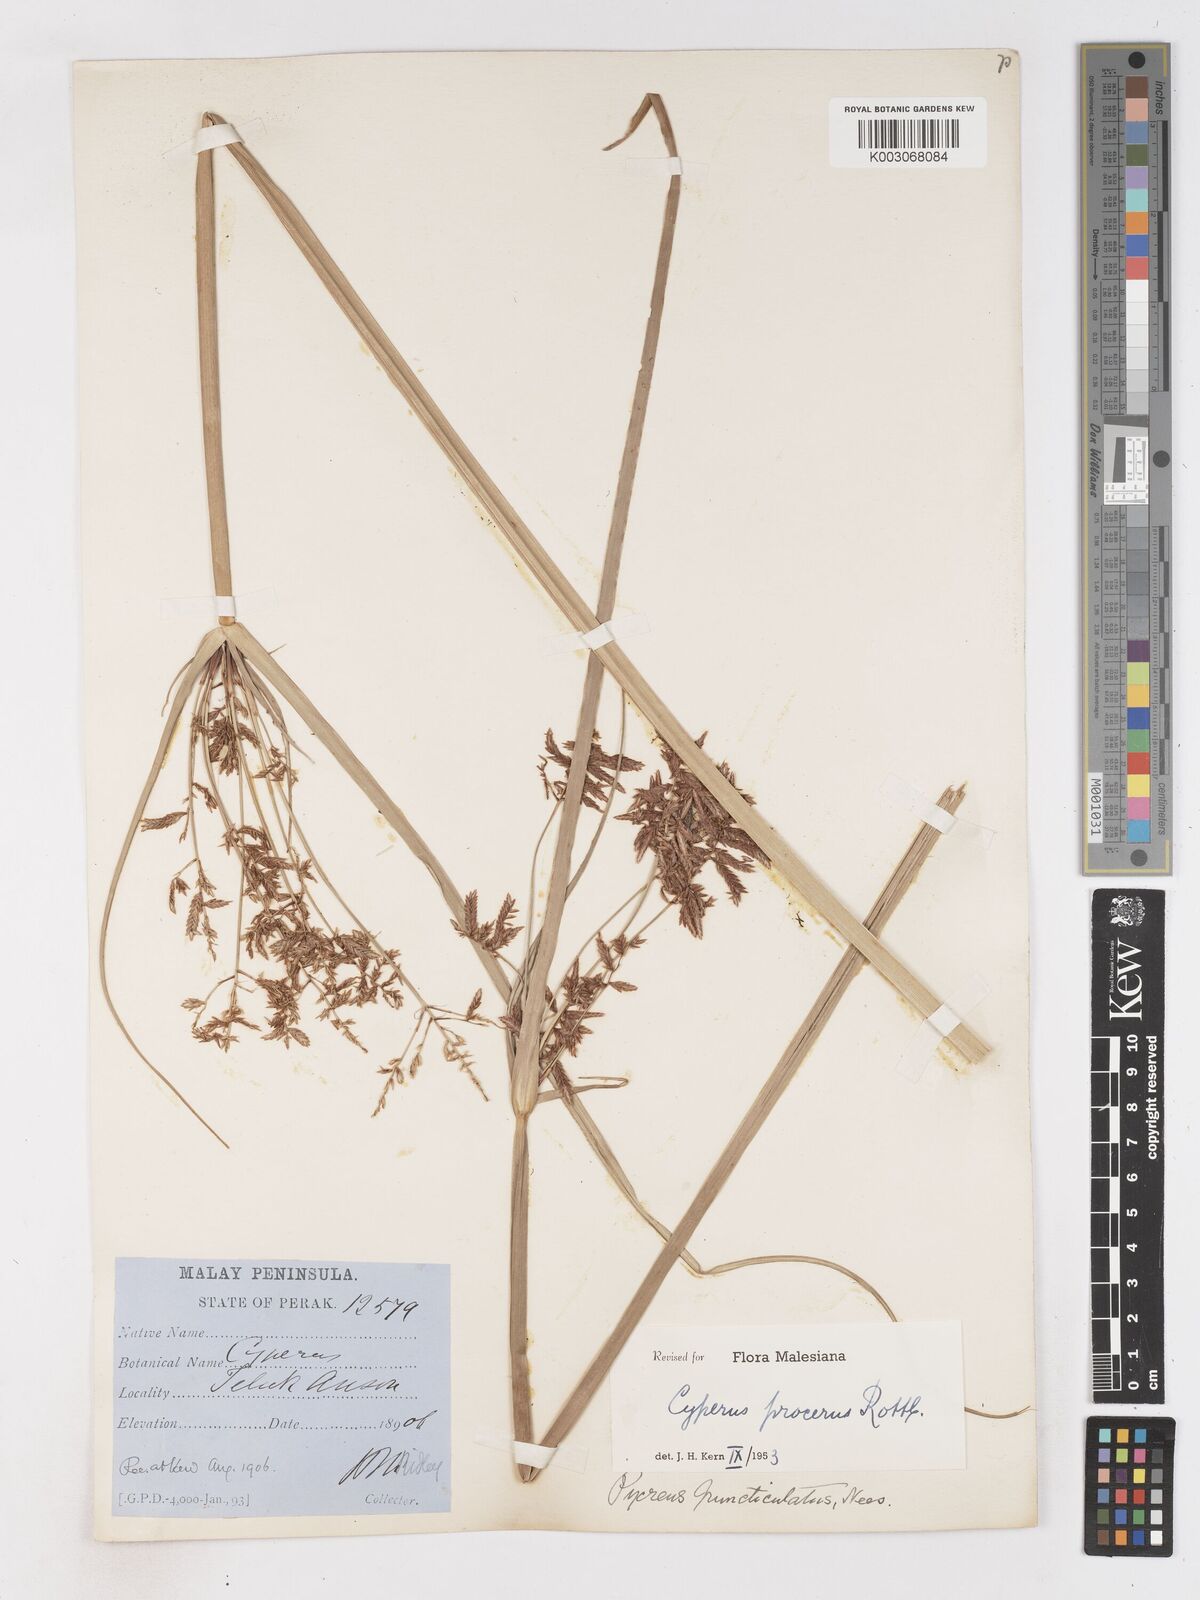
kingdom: Plantae
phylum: Tracheophyta
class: Liliopsida
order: Poales
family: Cyperaceae
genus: Cyperus
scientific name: Cyperus procerus
